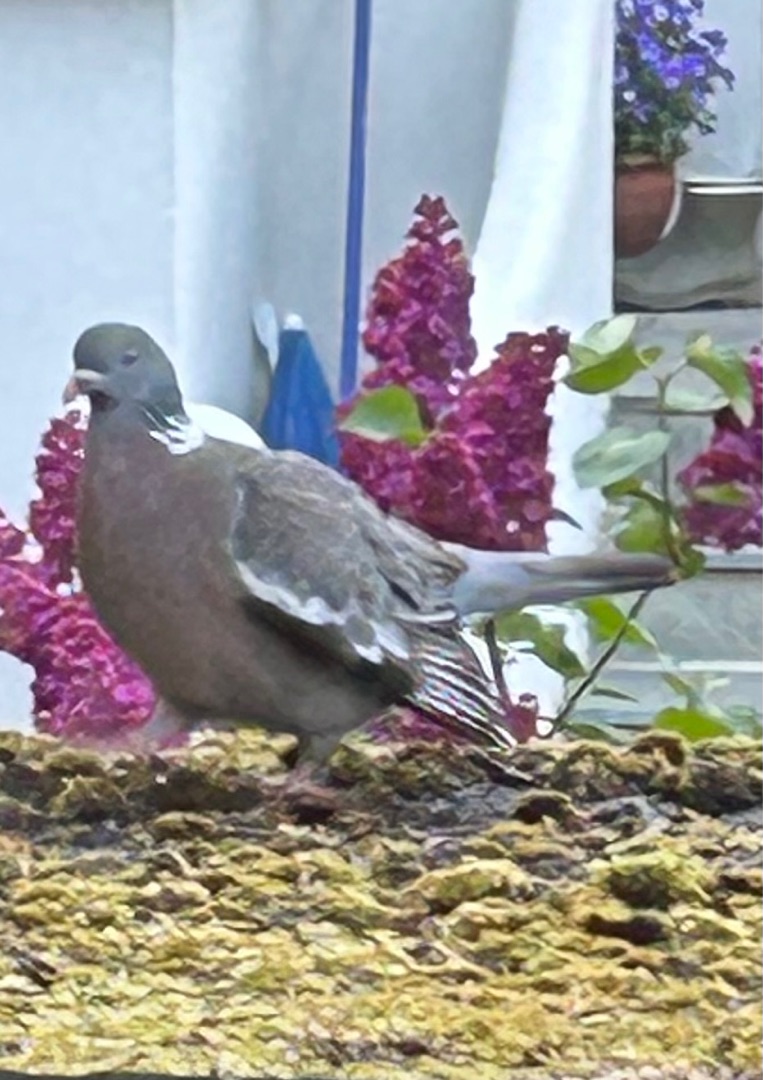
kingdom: Animalia
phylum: Chordata
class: Aves
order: Columbiformes
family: Columbidae
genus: Columba
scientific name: Columba palumbus
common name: Ringdue
